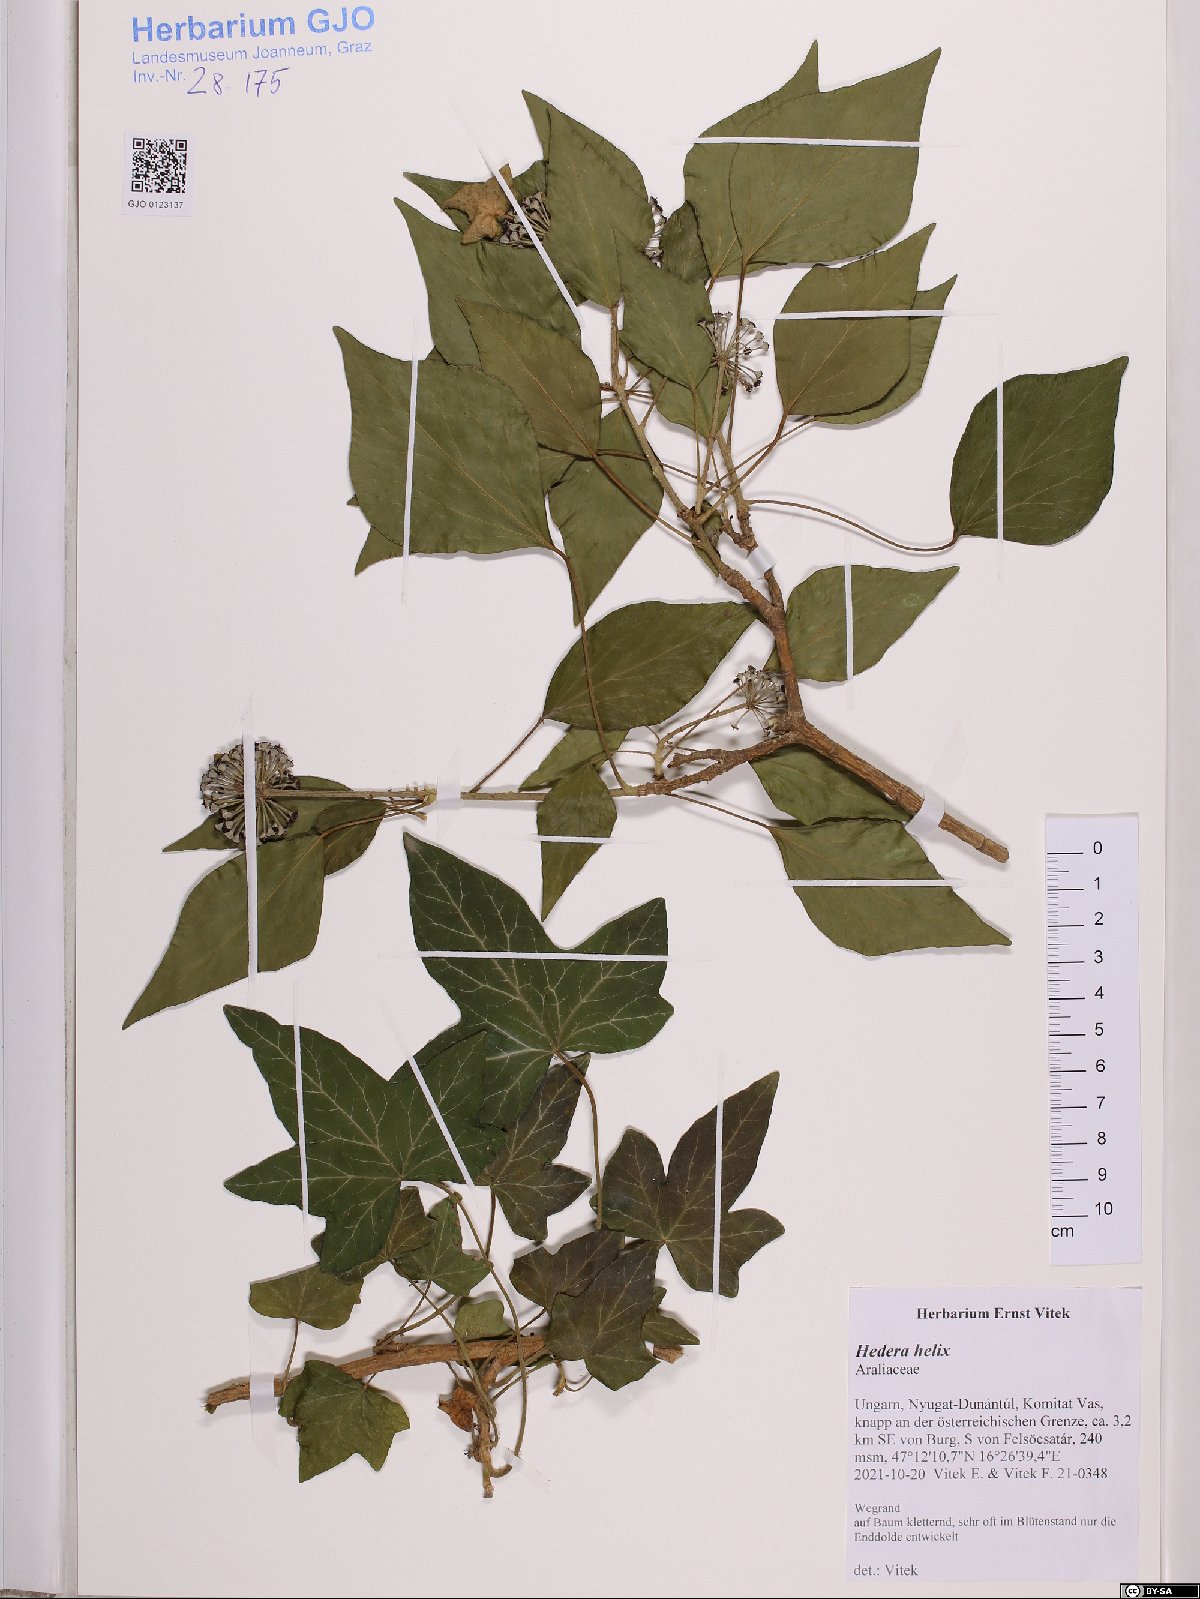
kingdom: Plantae
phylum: Tracheophyta
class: Magnoliopsida
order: Apiales
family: Araliaceae
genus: Hedera
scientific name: Hedera helix
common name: Ivy
